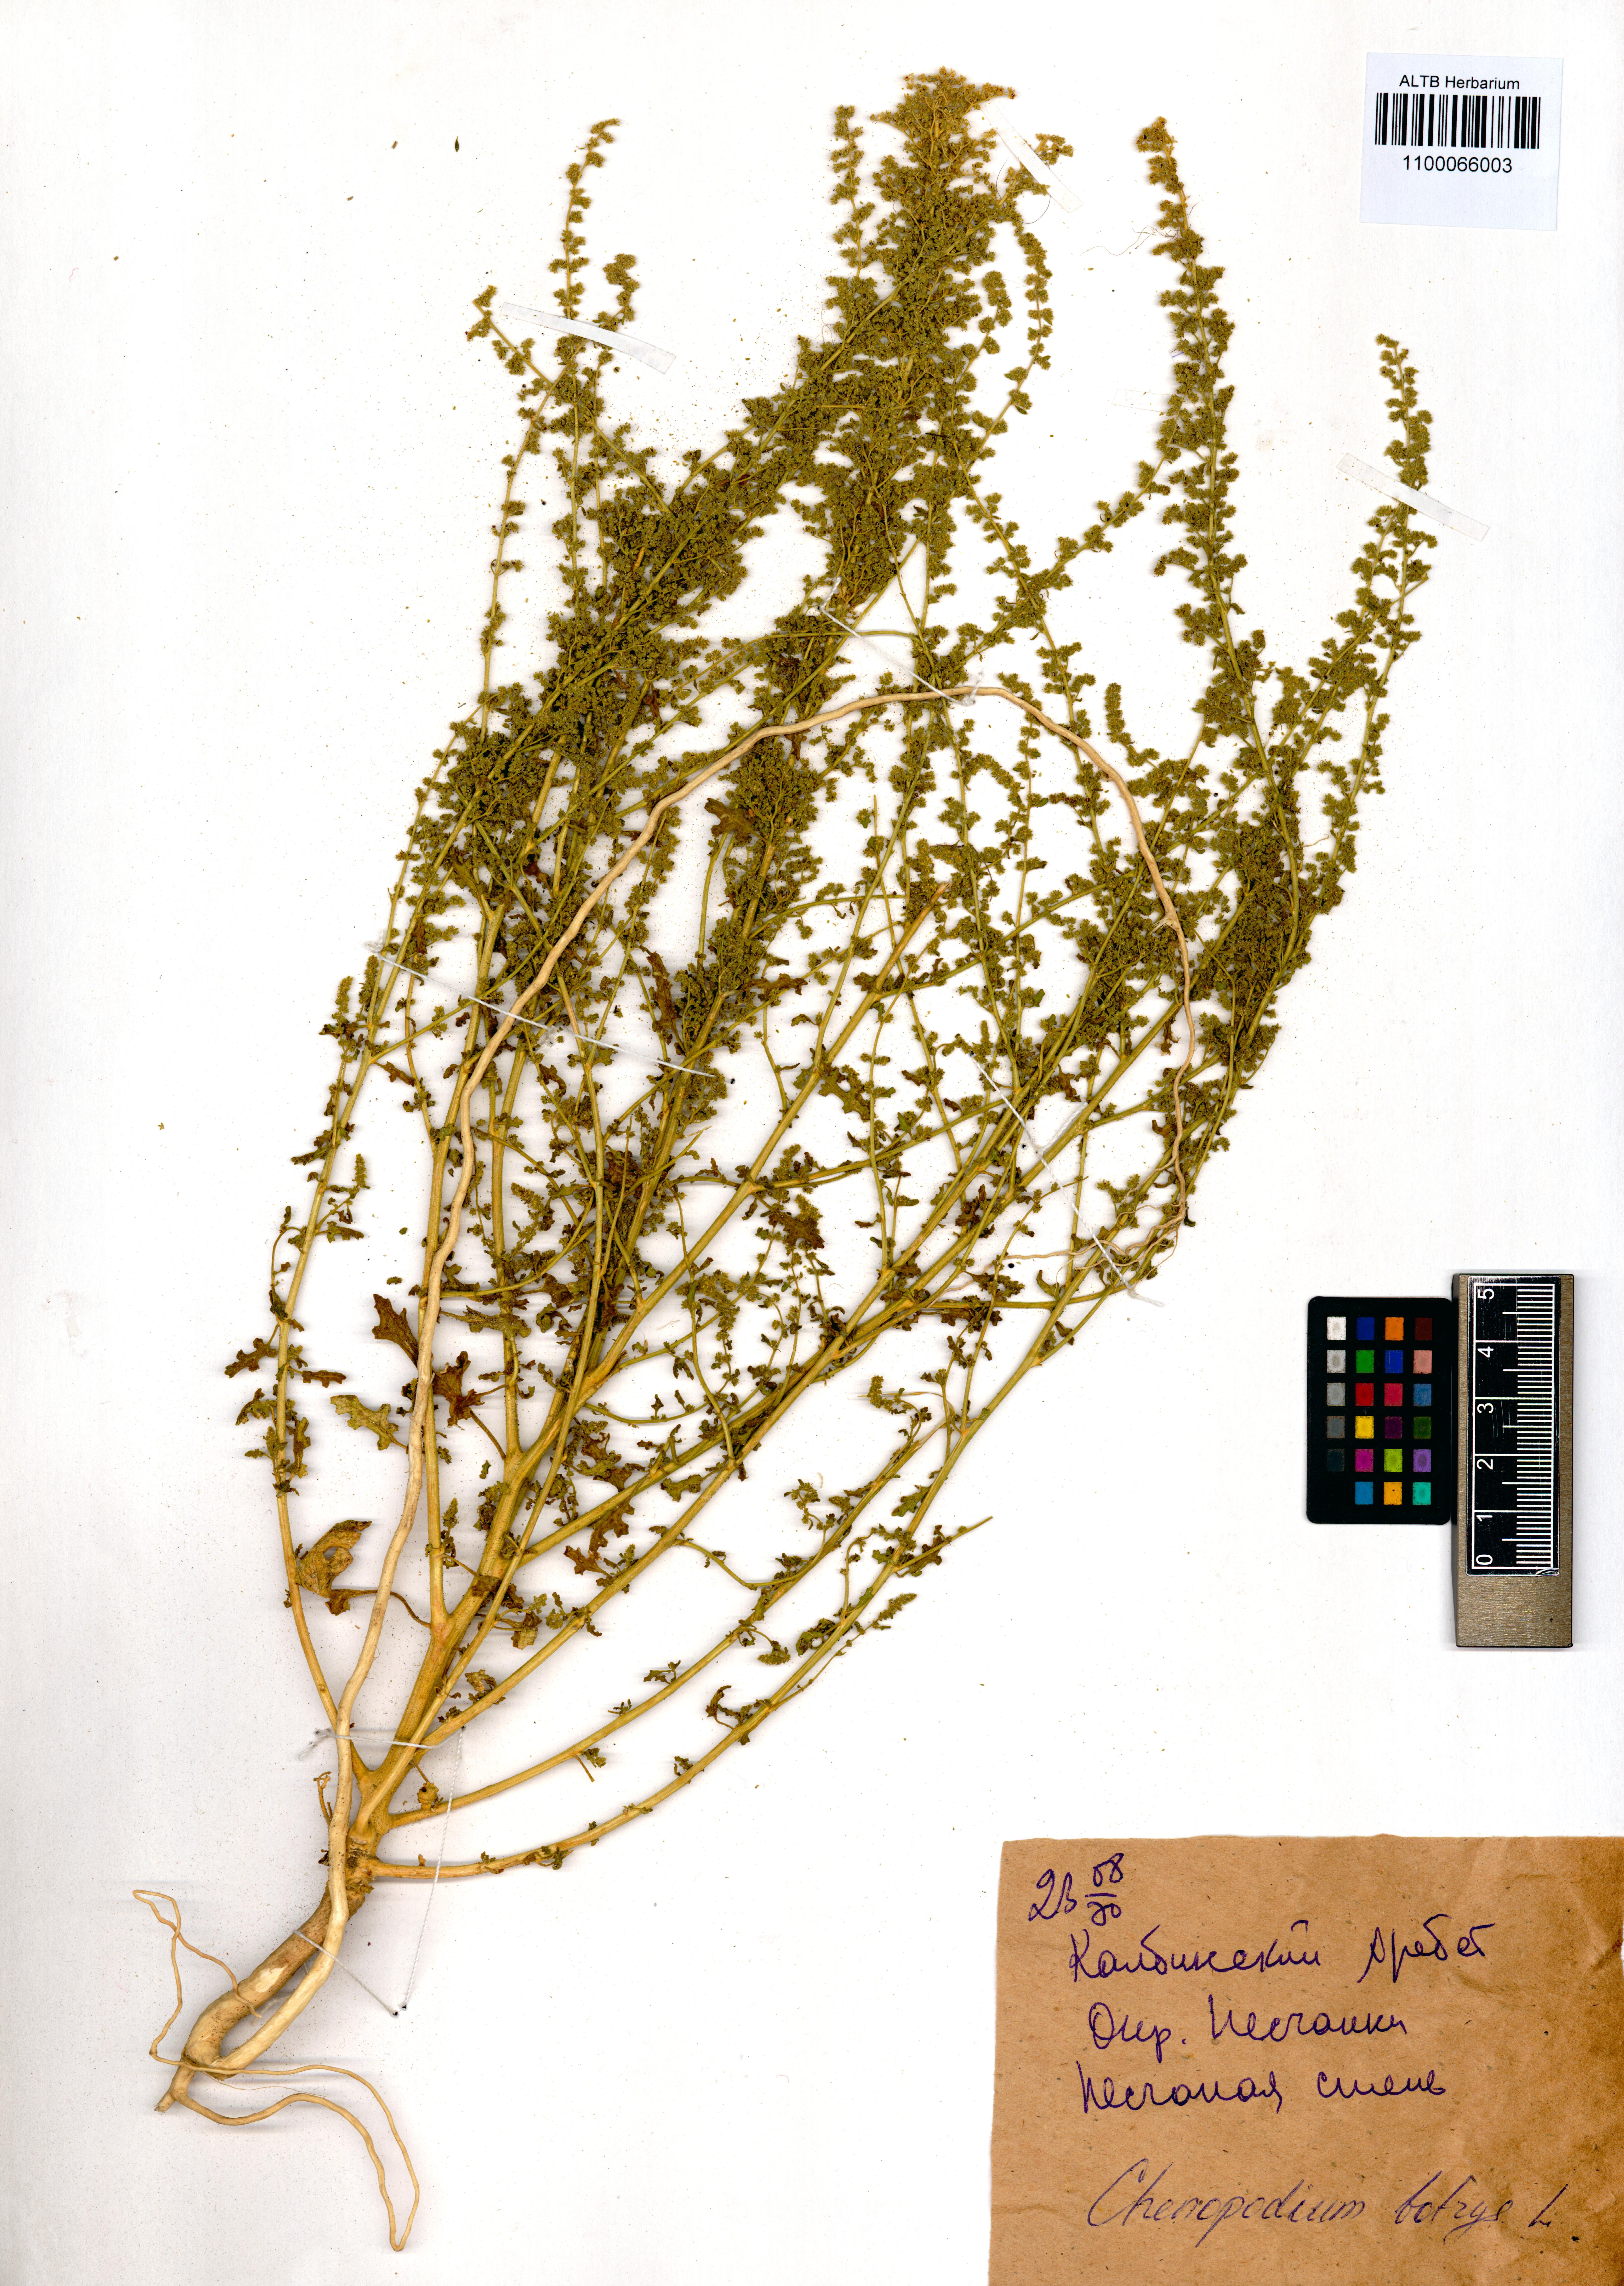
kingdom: Plantae
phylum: Tracheophyta
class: Magnoliopsida
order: Caryophyllales
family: Amaranthaceae
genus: Dysphania
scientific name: Dysphania botrys
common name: Feather-geranium
